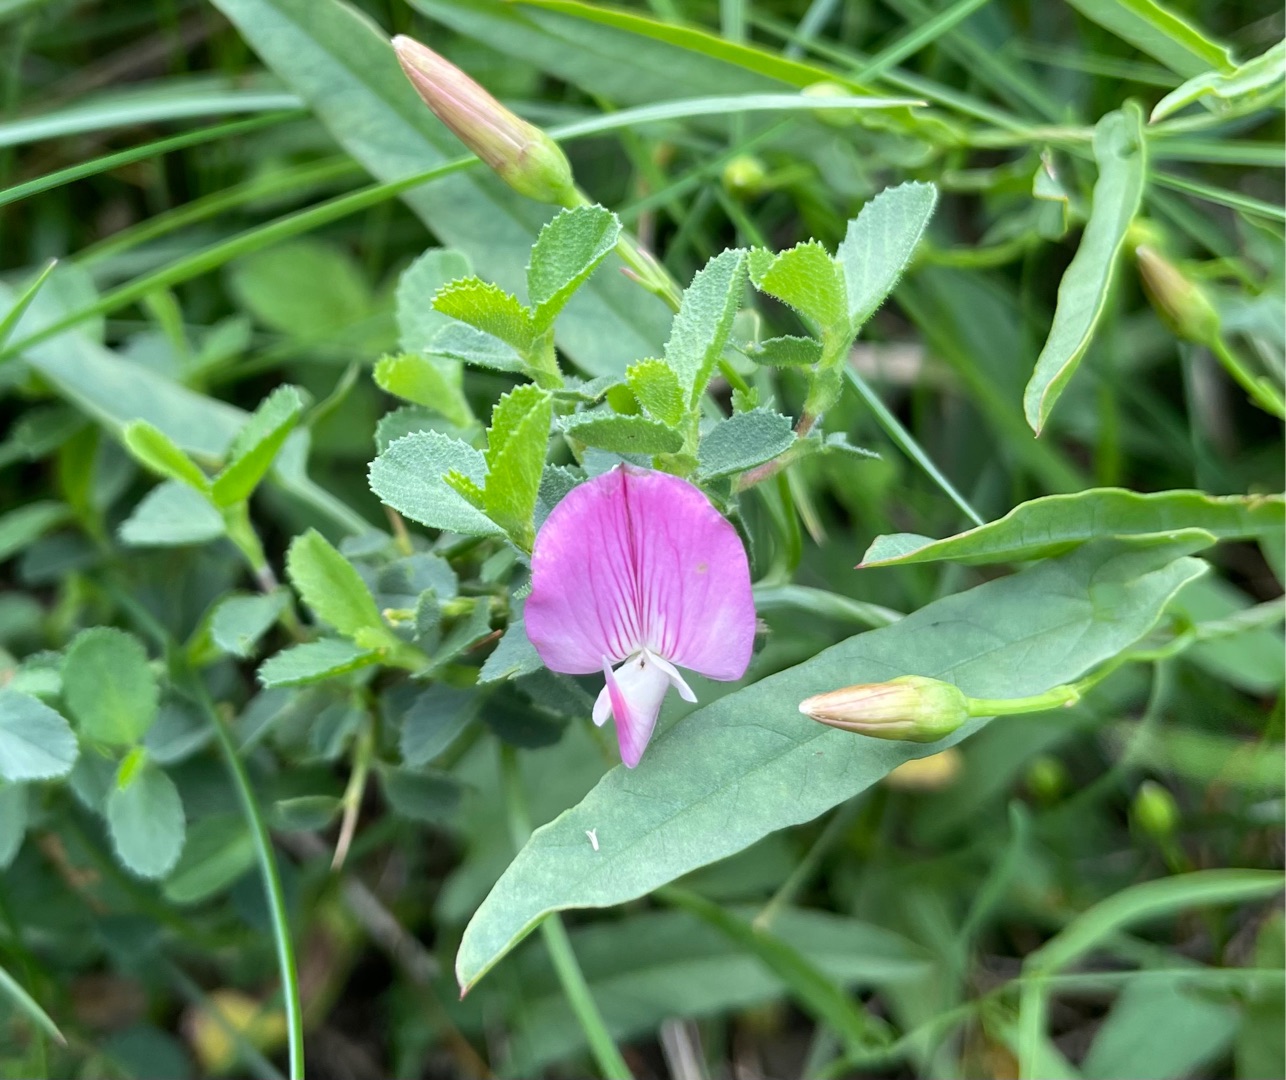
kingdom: Plantae
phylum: Tracheophyta
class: Magnoliopsida
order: Fabales
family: Fabaceae
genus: Ononis
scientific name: Ononis spinosa
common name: Mark-krageklo
